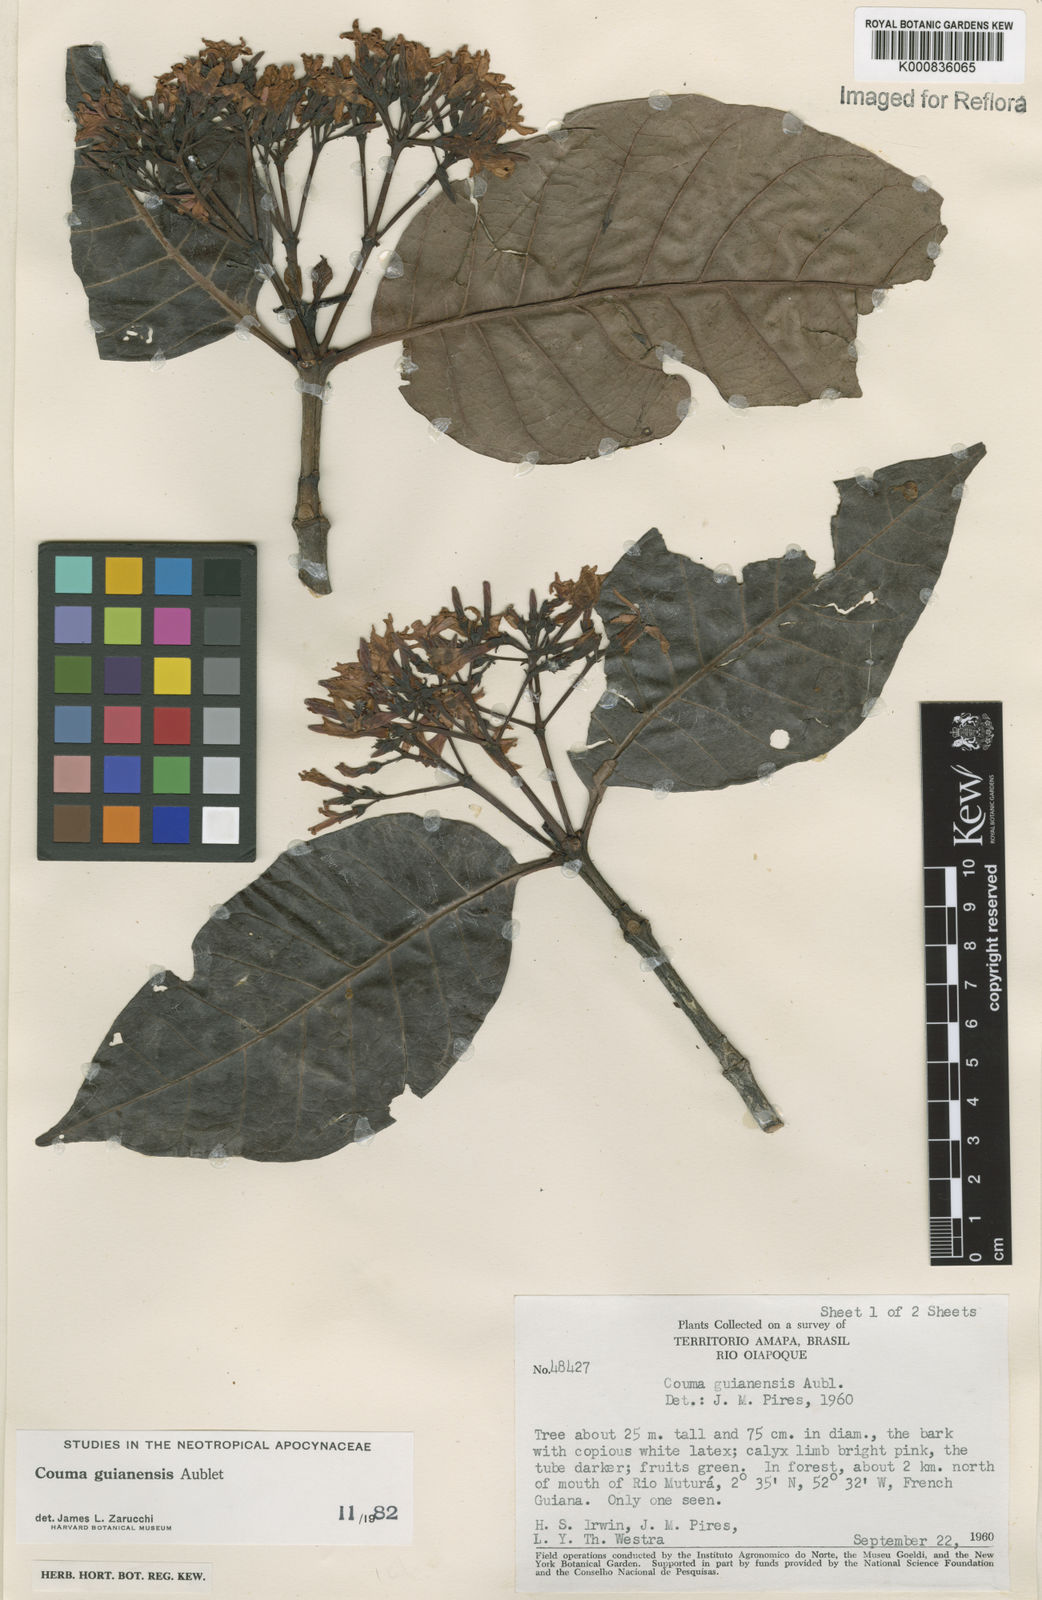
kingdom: Plantae
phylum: Tracheophyta
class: Magnoliopsida
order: Gentianales
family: Apocynaceae
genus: Couma
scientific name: Couma guianensis
